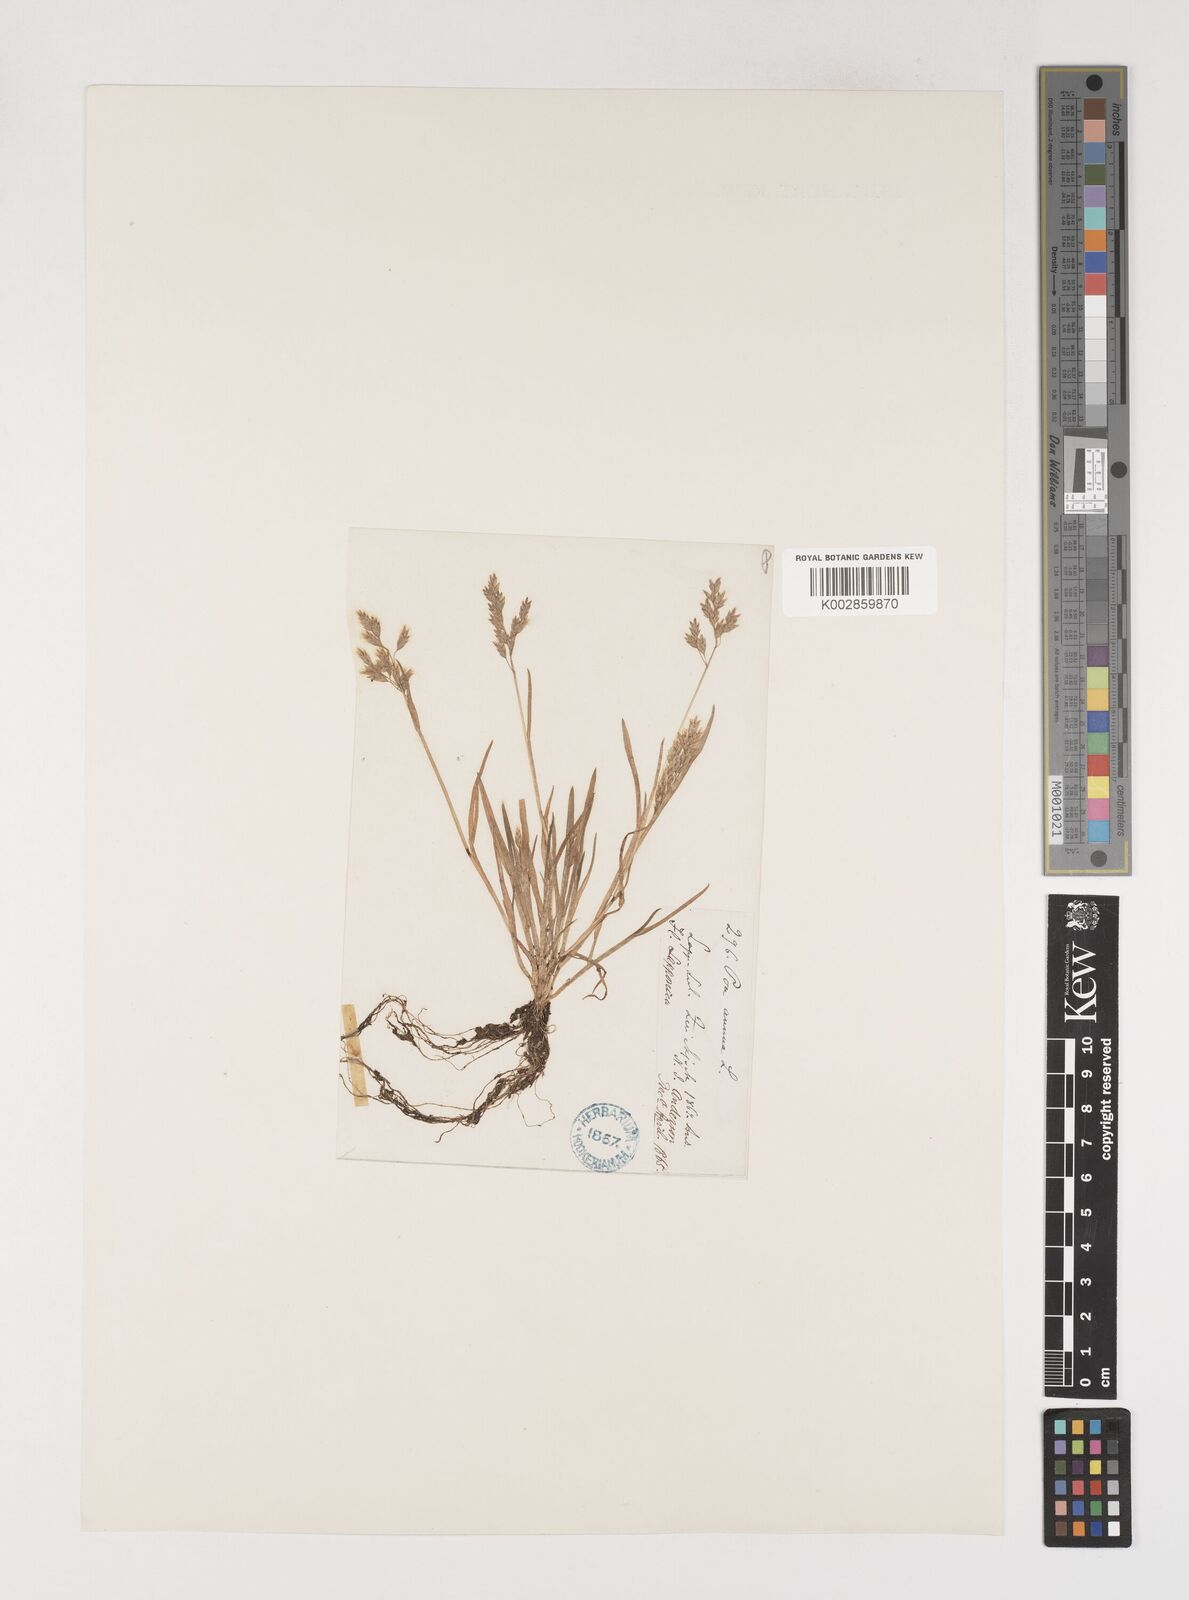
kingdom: Plantae
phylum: Tracheophyta
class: Liliopsida
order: Poales
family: Poaceae
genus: Poa
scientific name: Poa annua
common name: Annual bluegrass
